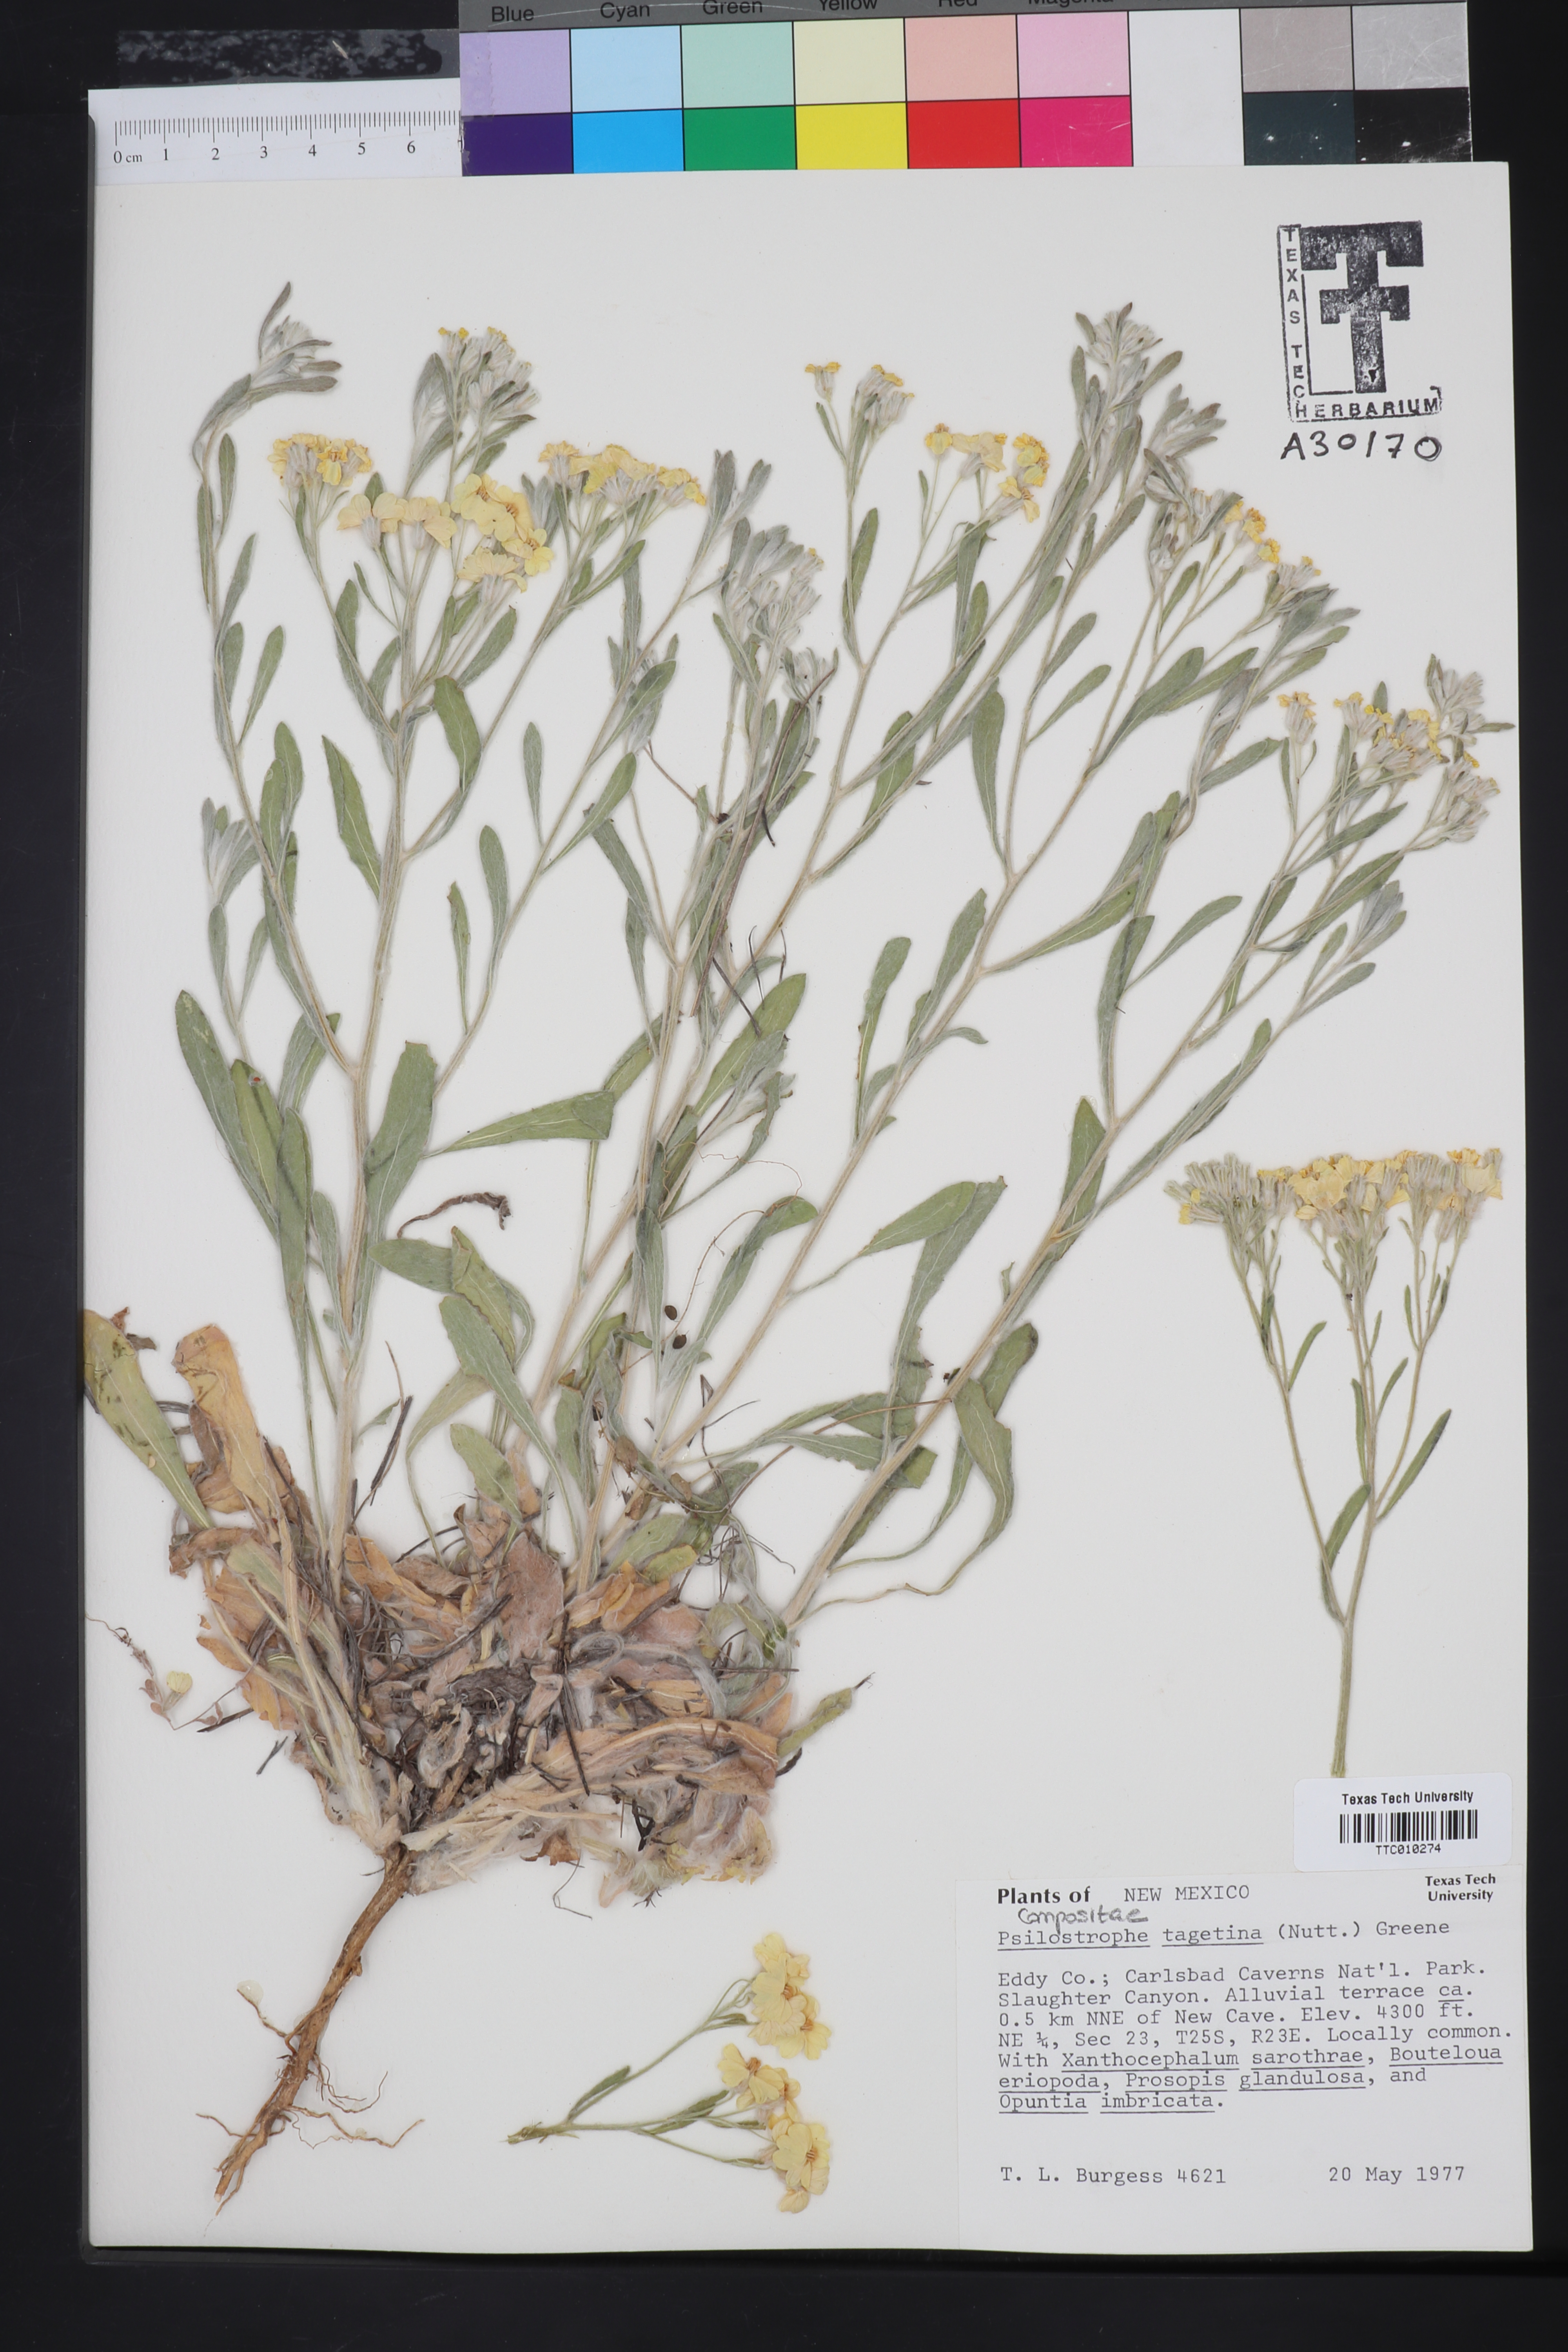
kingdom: Plantae
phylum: Tracheophyta
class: Magnoliopsida
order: Asterales
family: Asteraceae
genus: Psilostrophe
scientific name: Psilostrophe tagetina
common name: Marigold paper-flower
